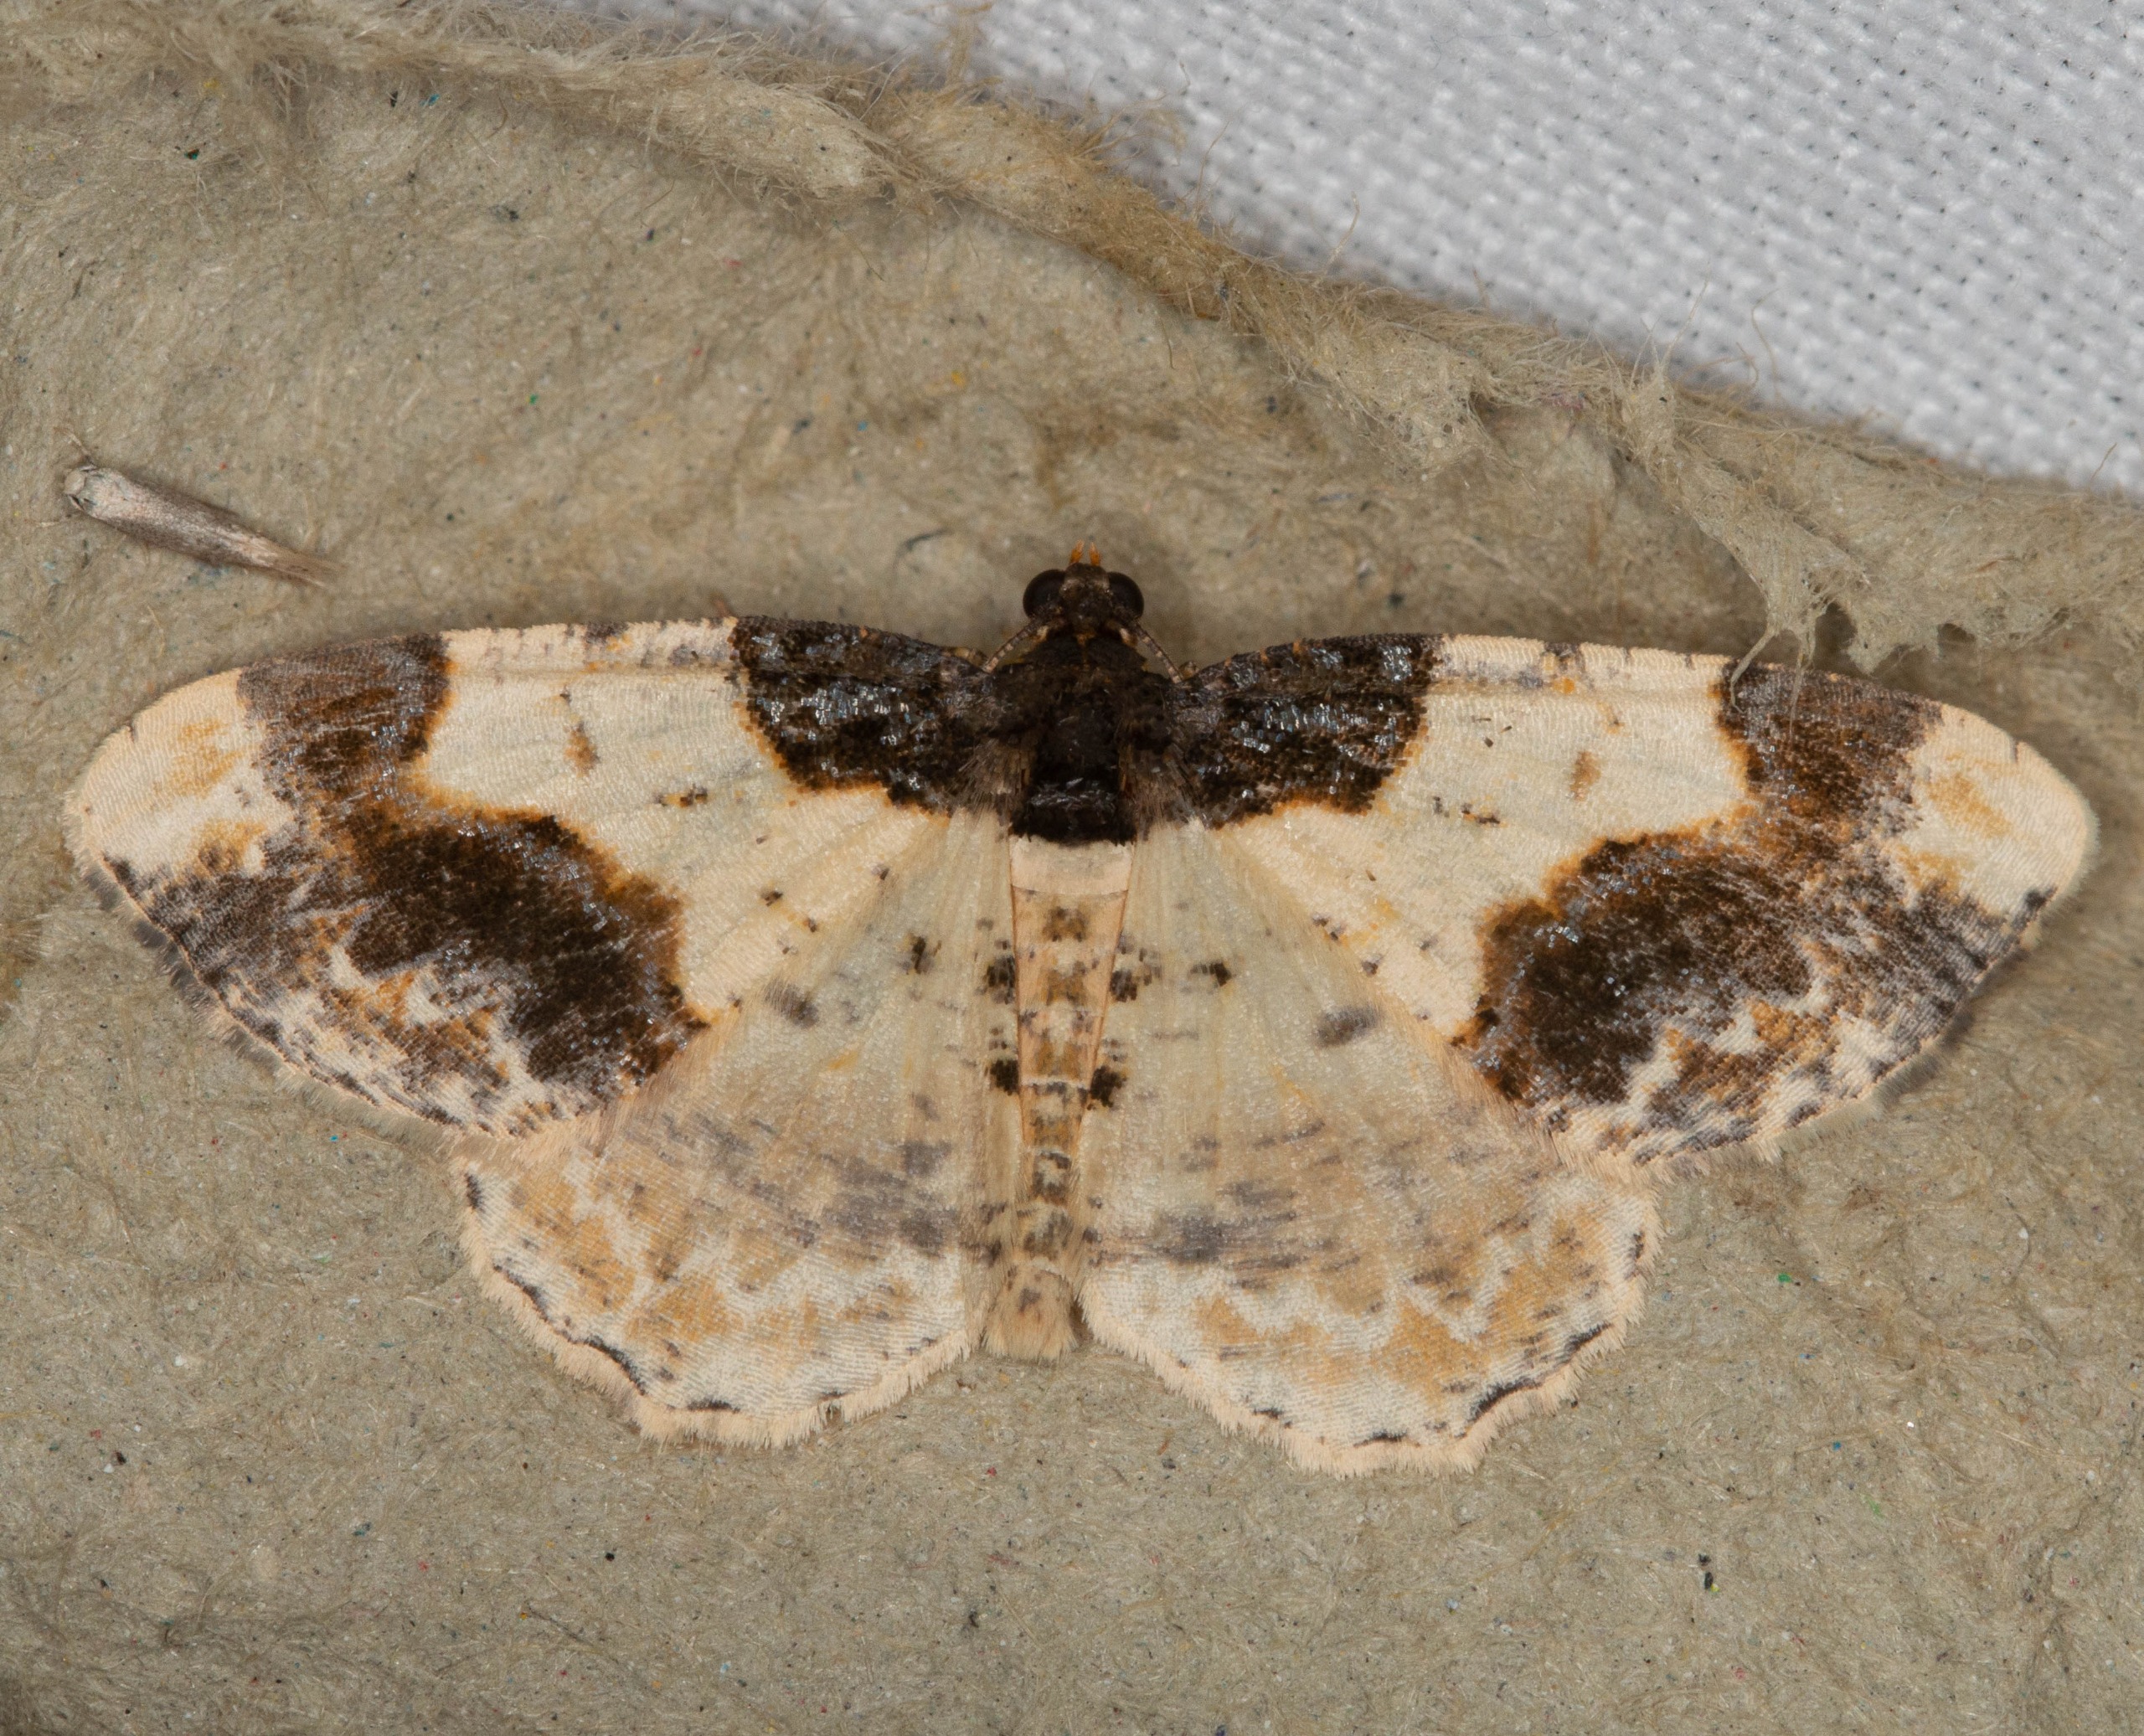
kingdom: Animalia
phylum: Arthropoda
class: Insecta
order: Lepidoptera
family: Geometridae
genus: Ligdia
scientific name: Ligdia adustata
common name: Benvedmåler
